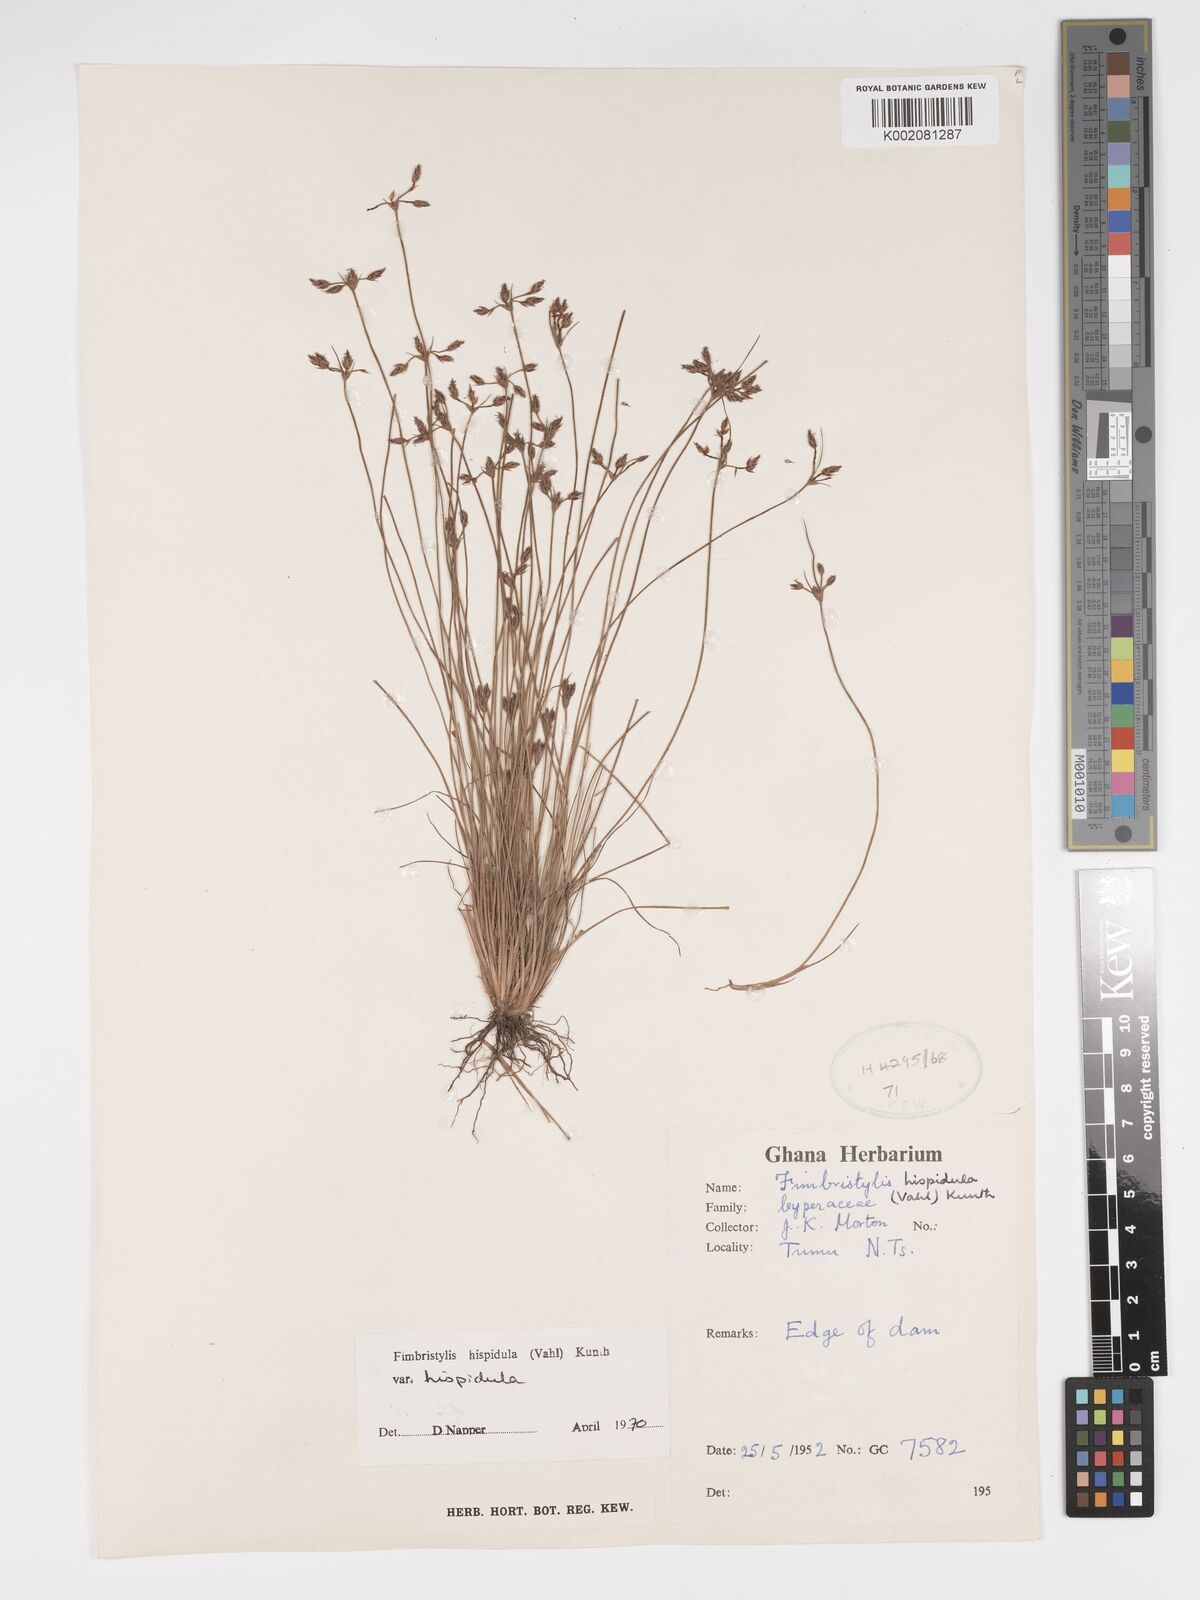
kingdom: Plantae
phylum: Tracheophyta
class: Liliopsida
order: Poales
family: Cyperaceae
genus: Bulbostylis
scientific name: Bulbostylis
